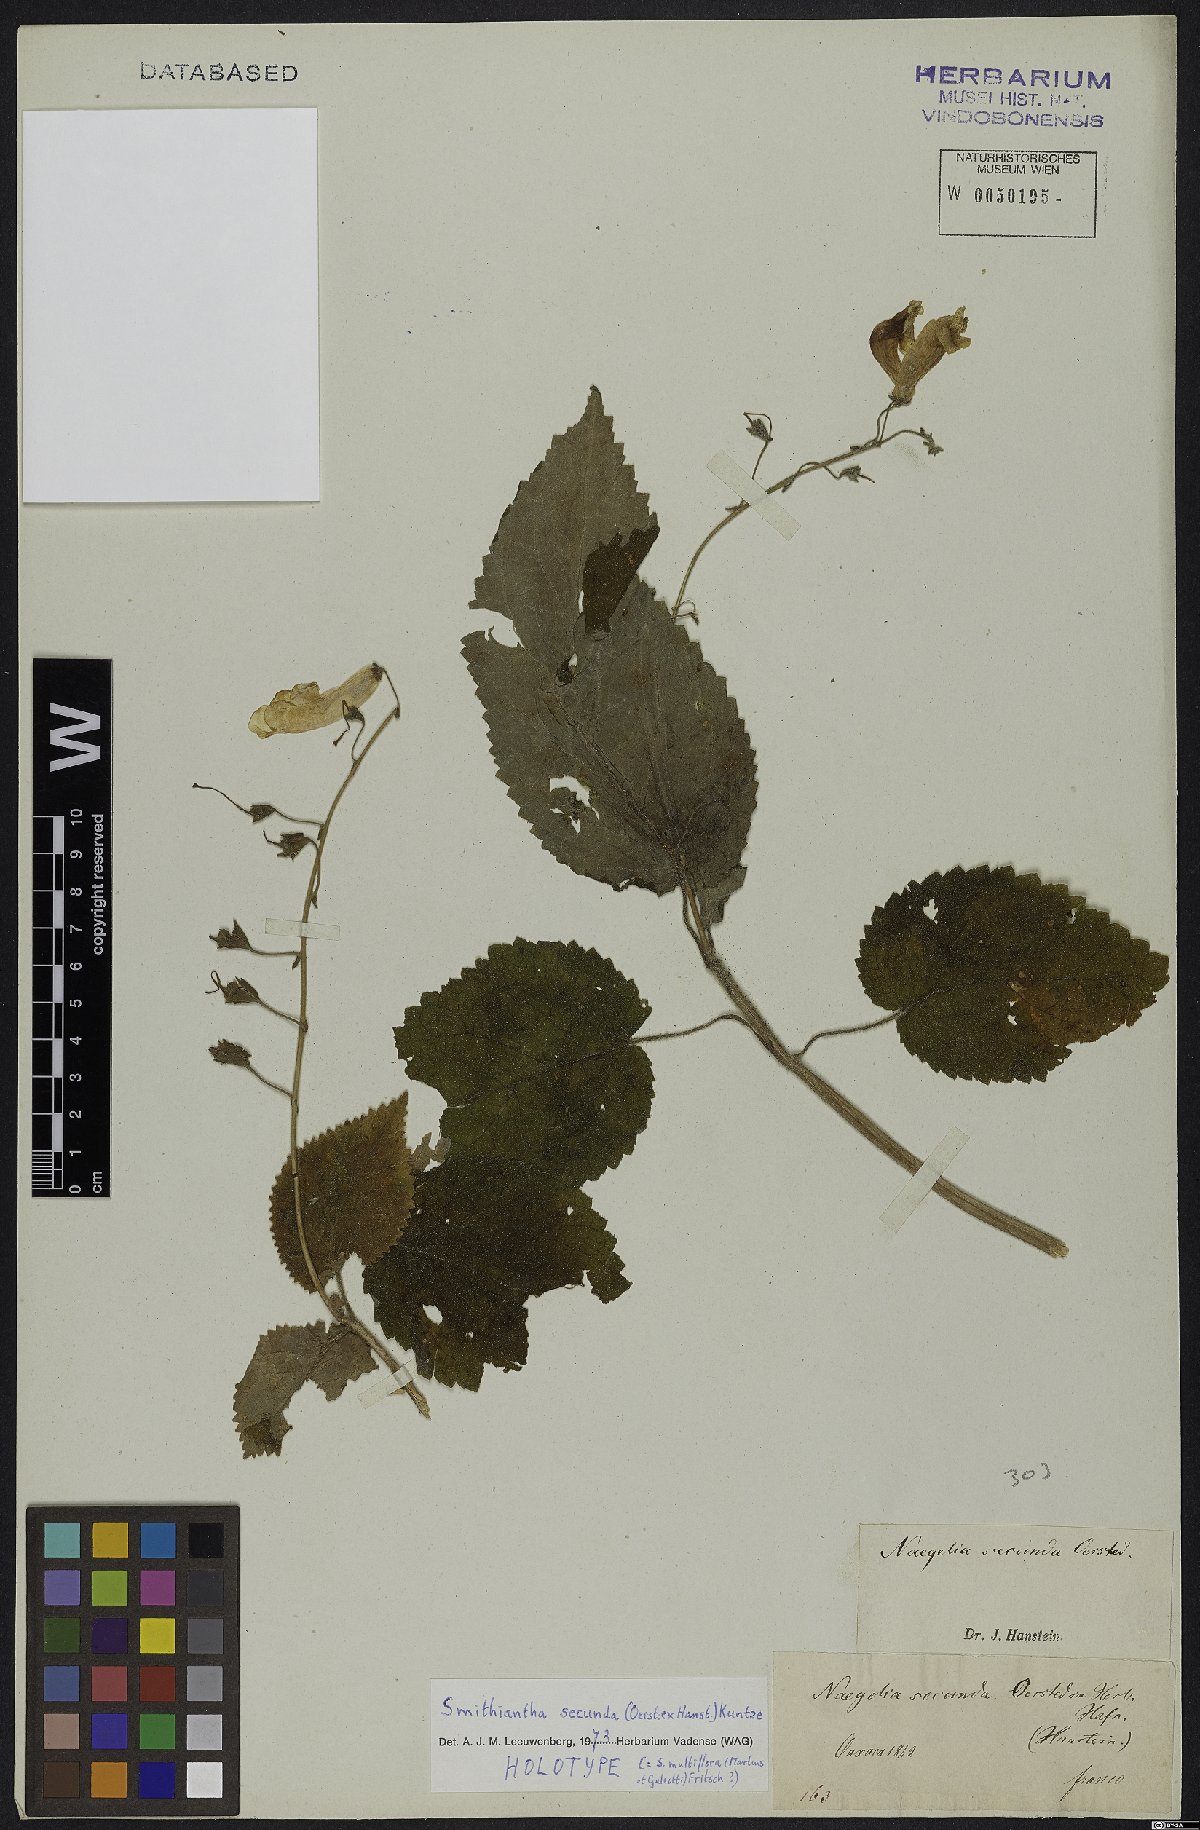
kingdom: Plantae
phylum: Tracheophyta
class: Magnoliopsida
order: Lamiales
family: Gesneriaceae
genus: Smithiantha
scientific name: Smithiantha multiflora
